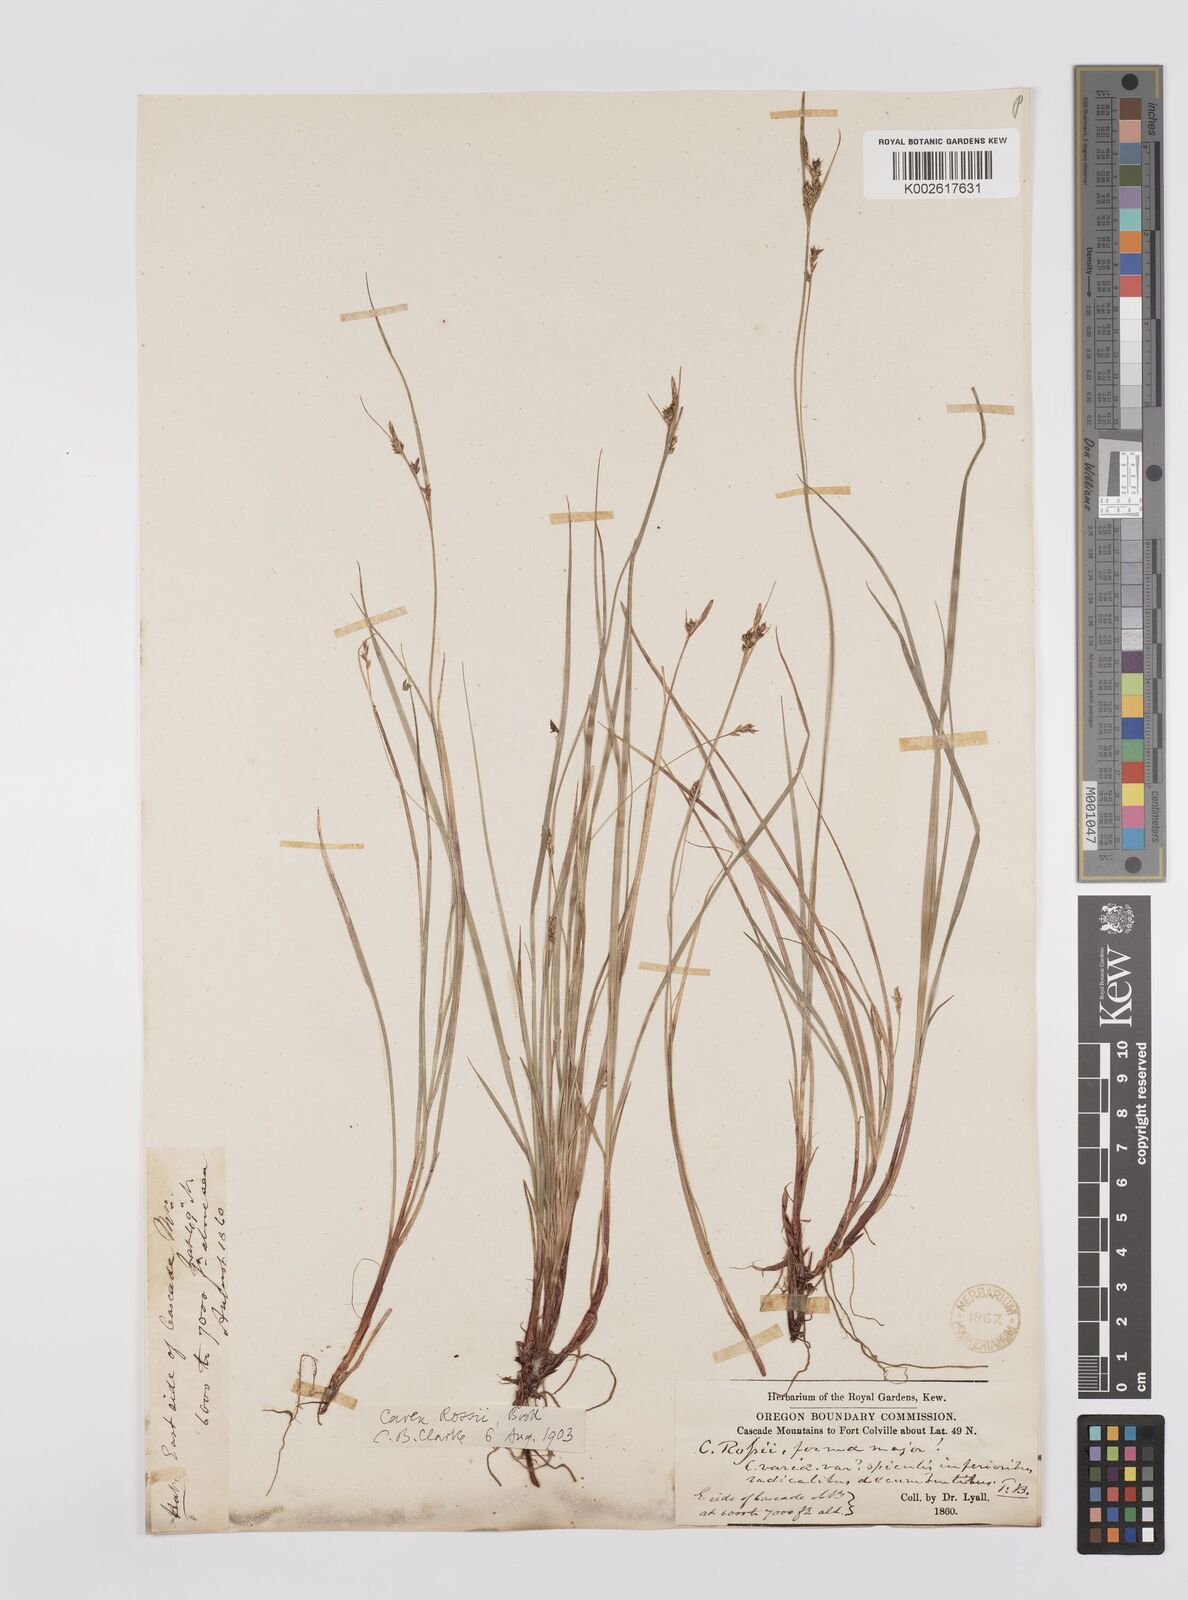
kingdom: Plantae
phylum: Tracheophyta
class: Liliopsida
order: Poales
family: Cyperaceae
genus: Carex
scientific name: Carex rossii
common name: Ross' sedge
